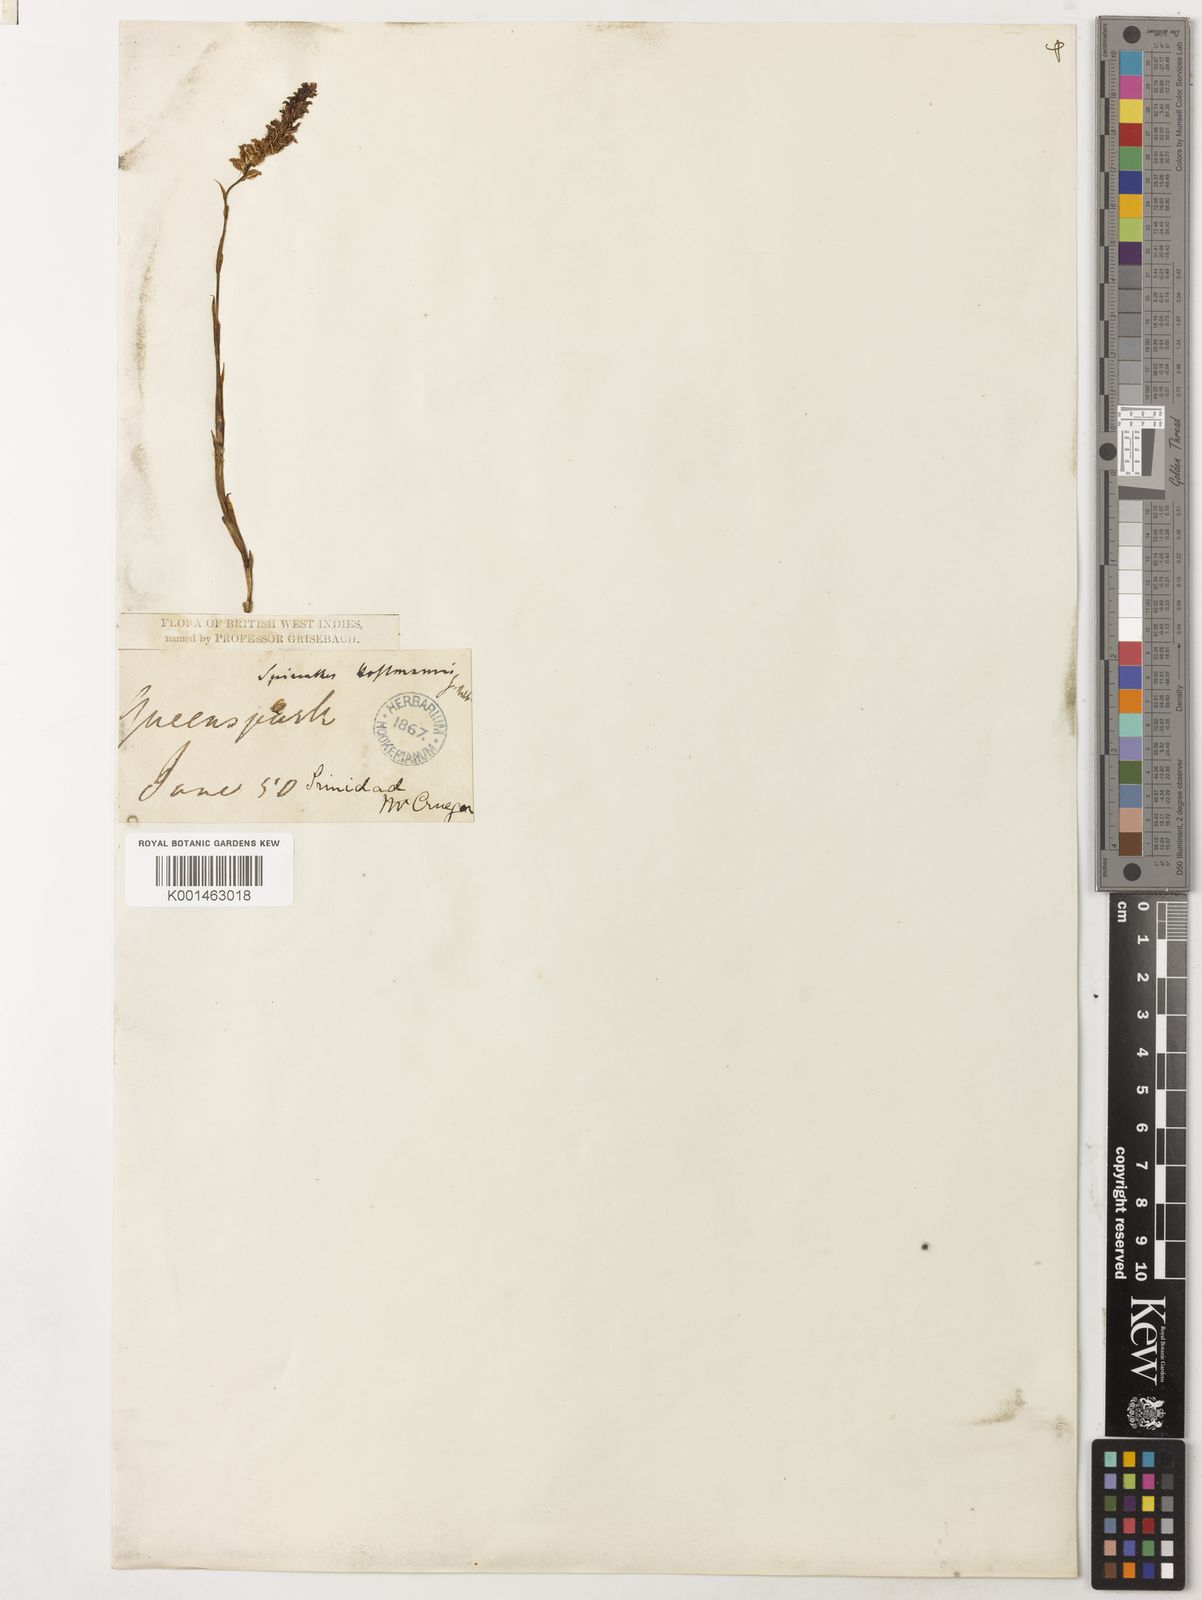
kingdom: Plantae
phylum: Tracheophyta
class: Liliopsida
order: Asparagales
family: Orchidaceae
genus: Brachystele
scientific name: Brachystele guayanensis
